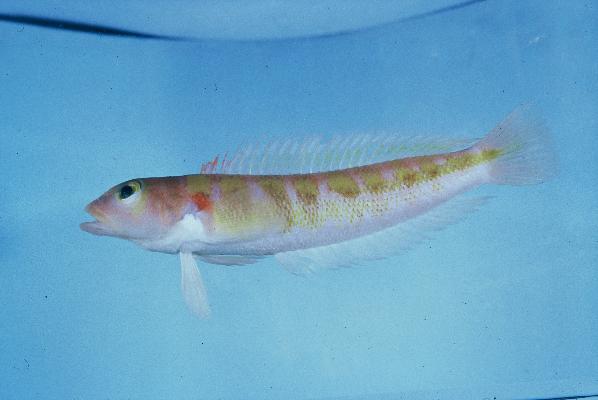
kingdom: Animalia
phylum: Chordata
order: Perciformes
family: Pinguipedidae
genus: Parapercis
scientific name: Parapercis maritzi
